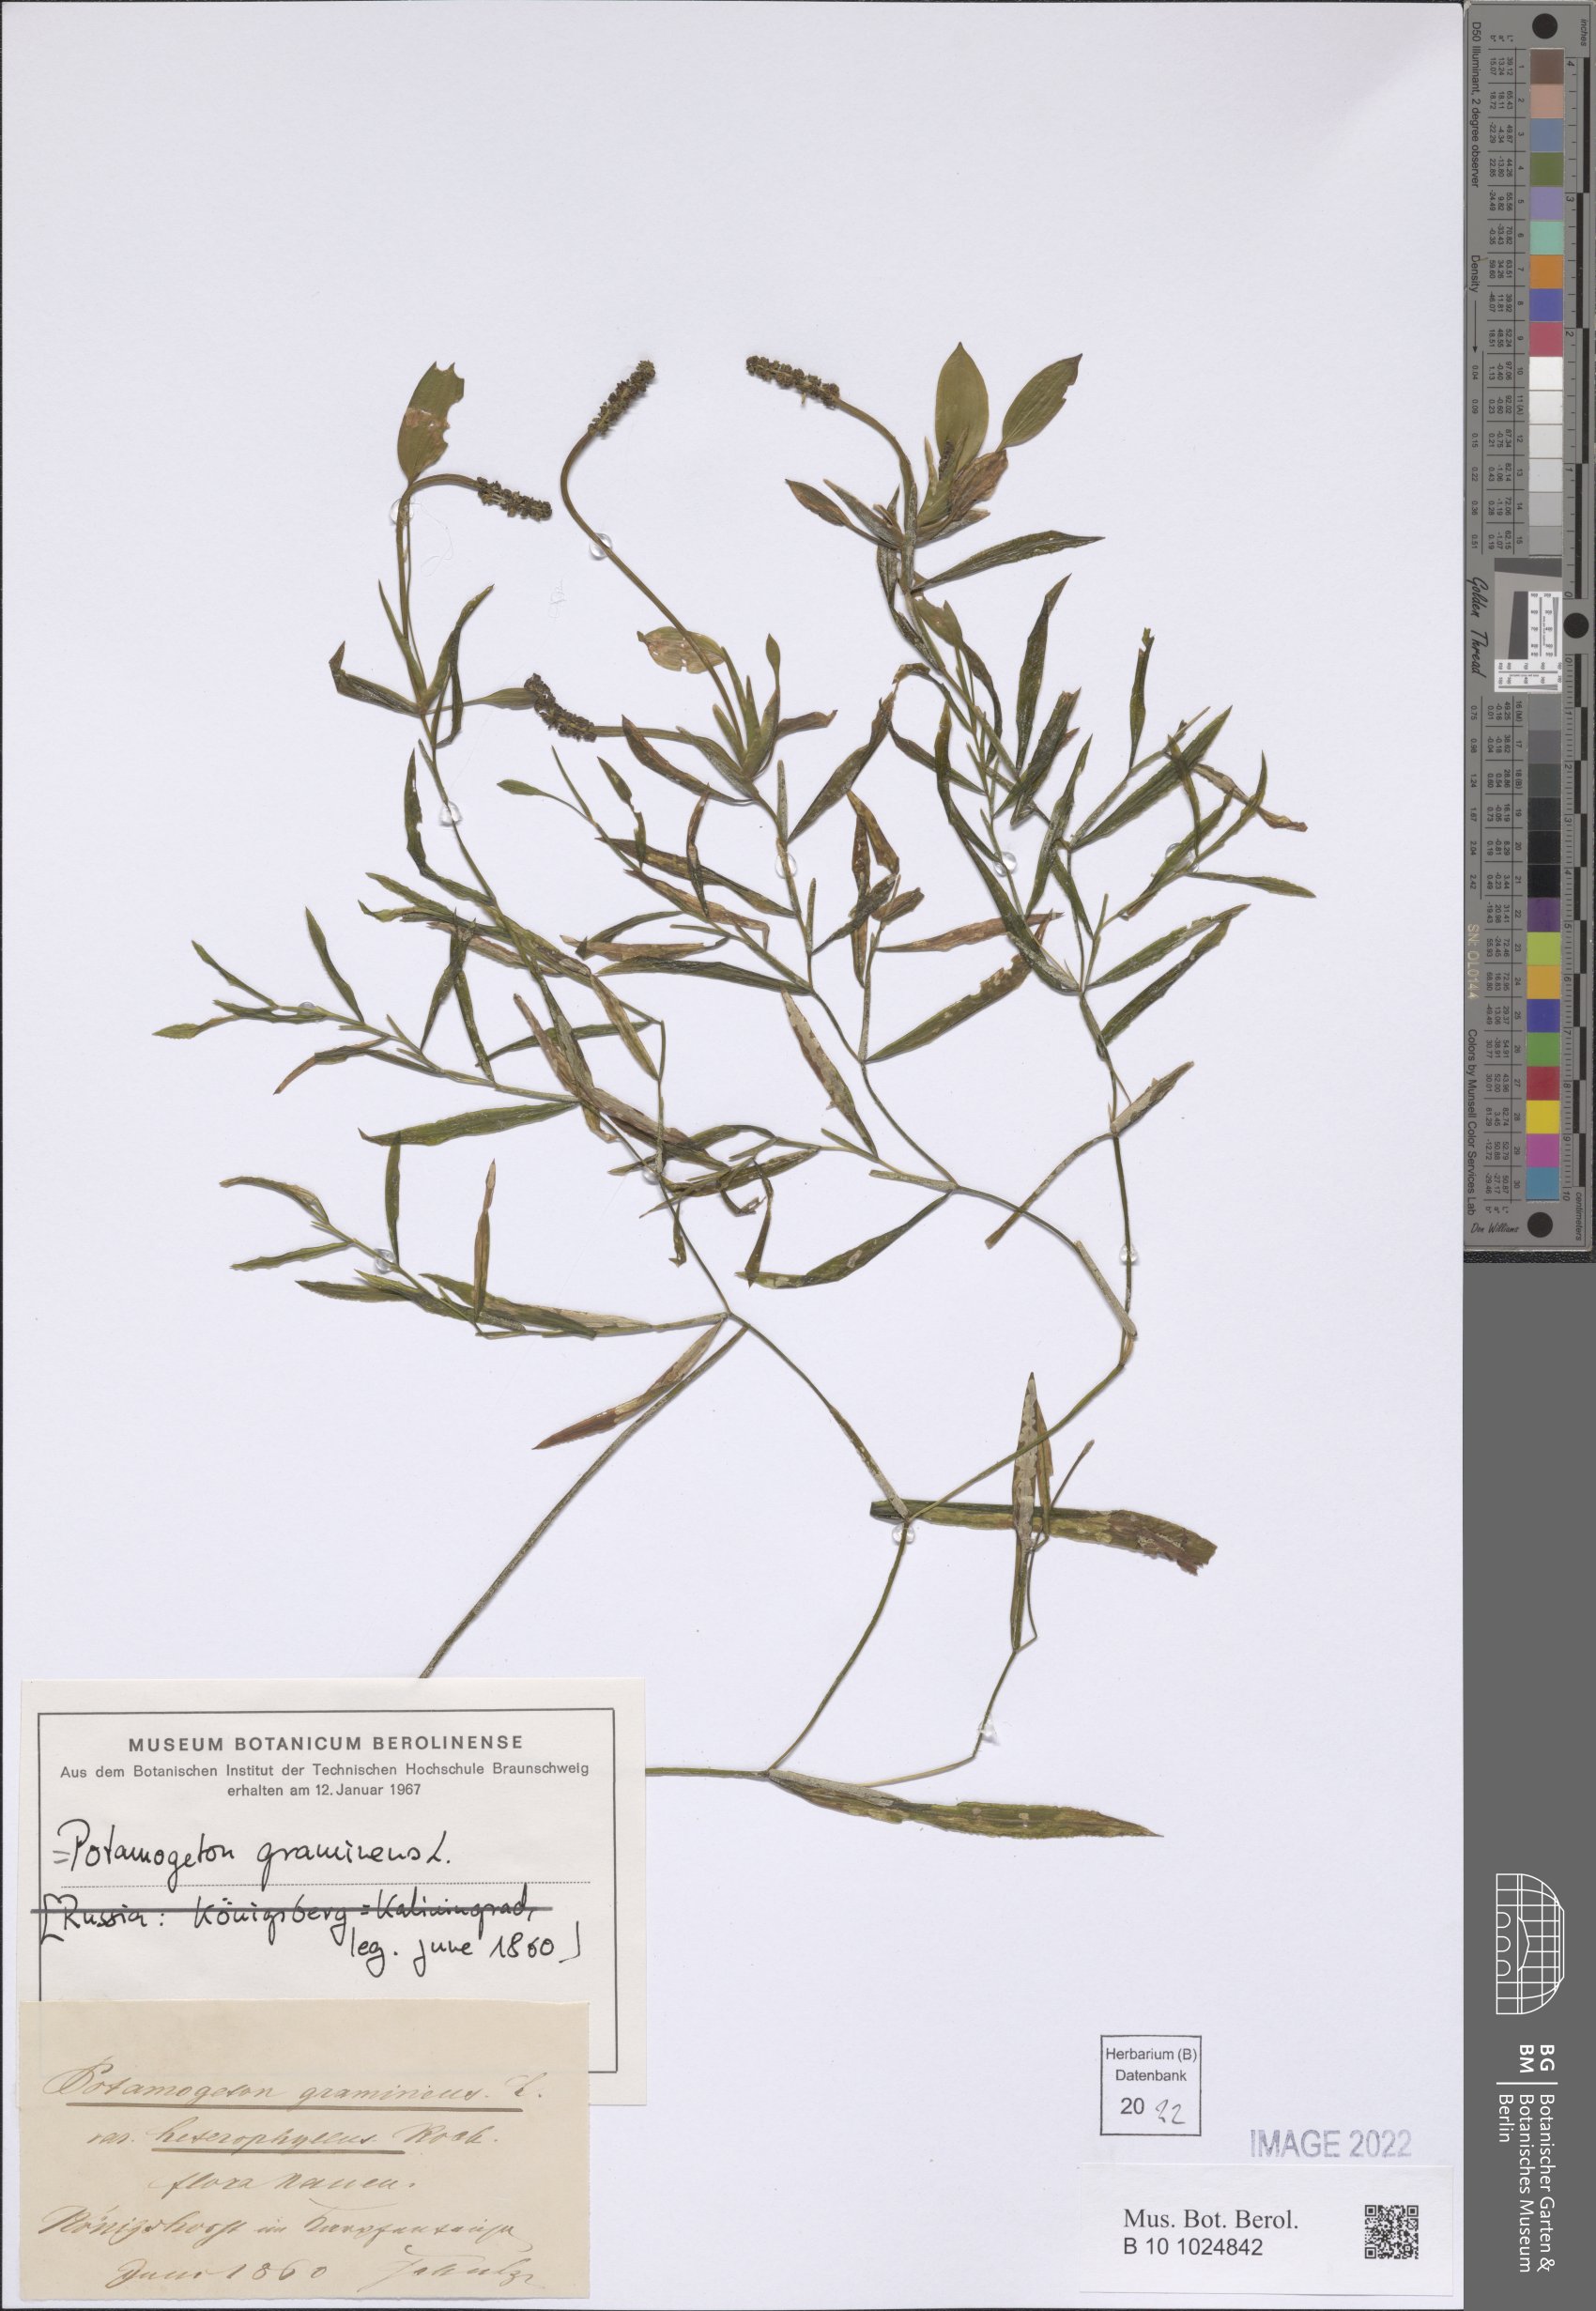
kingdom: Plantae
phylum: Tracheophyta
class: Liliopsida
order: Alismatales
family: Potamogetonaceae
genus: Potamogeton
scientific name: Potamogeton gramineus
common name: Various-leaved pondweed
